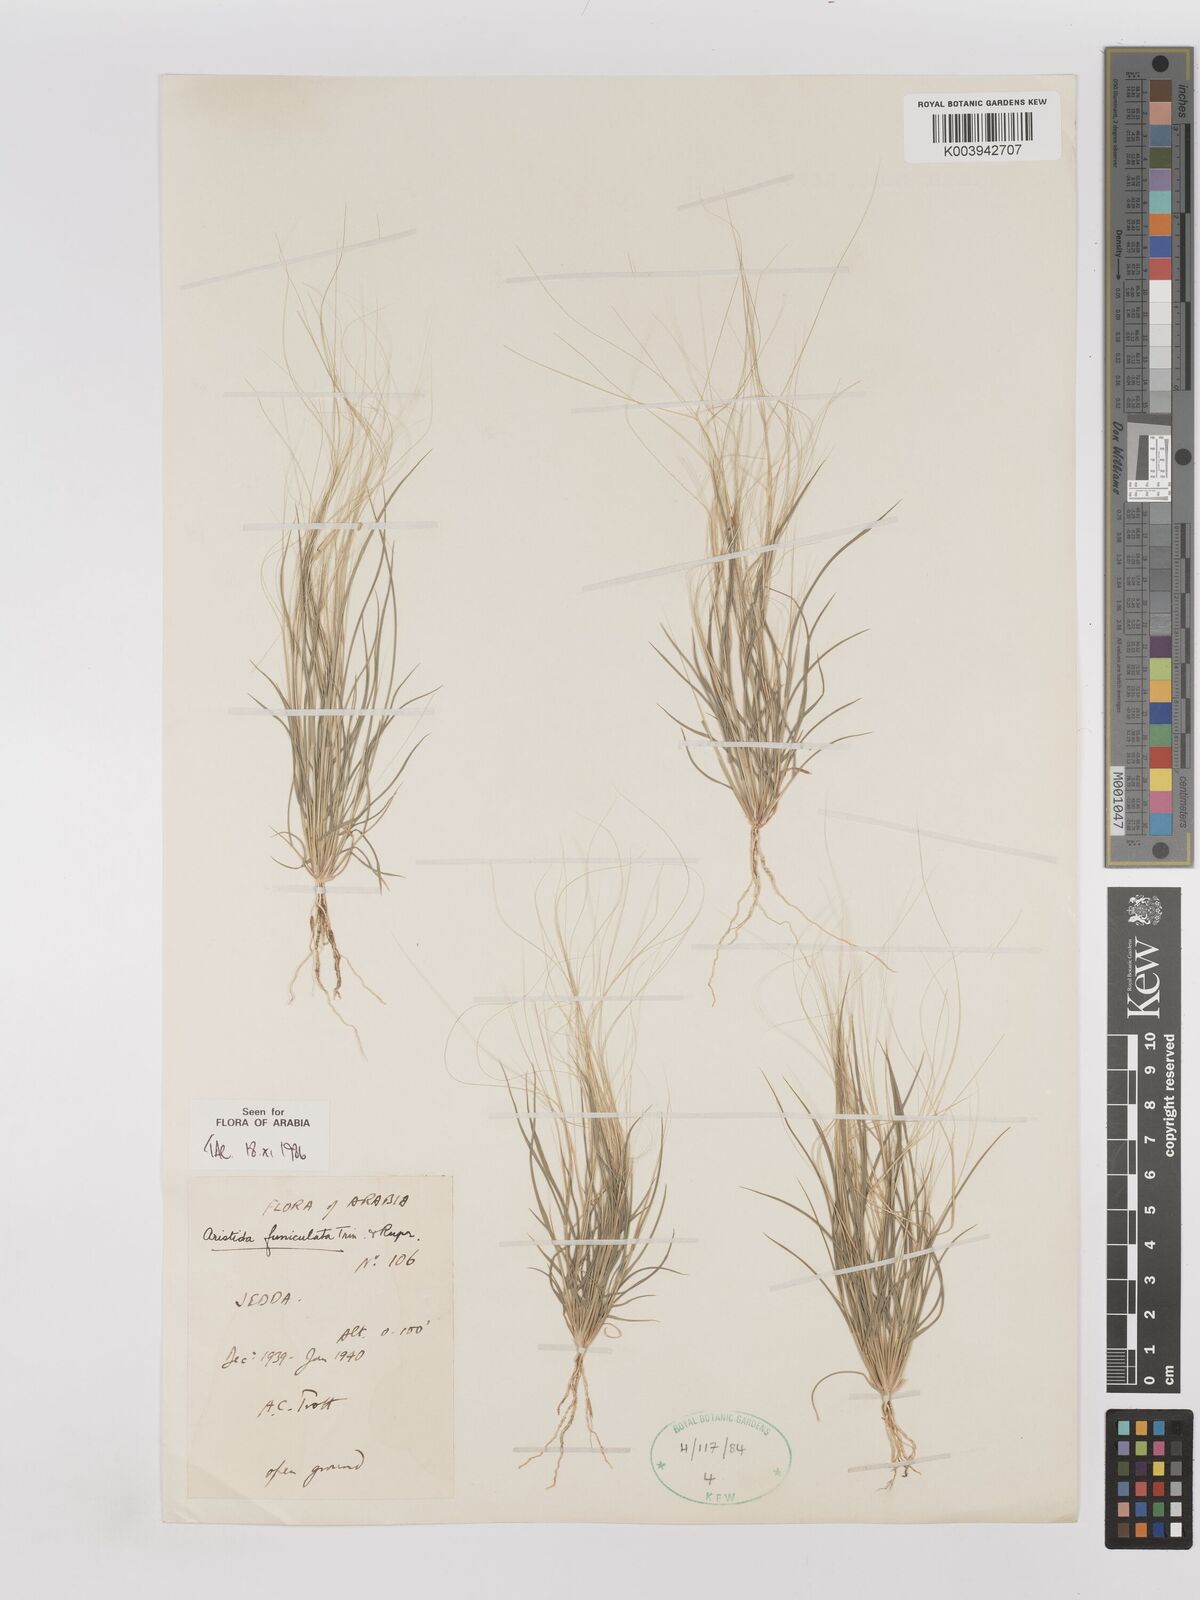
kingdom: Plantae
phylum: Tracheophyta
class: Liliopsida
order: Poales
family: Poaceae
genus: Aristida
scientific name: Aristida funiculata
